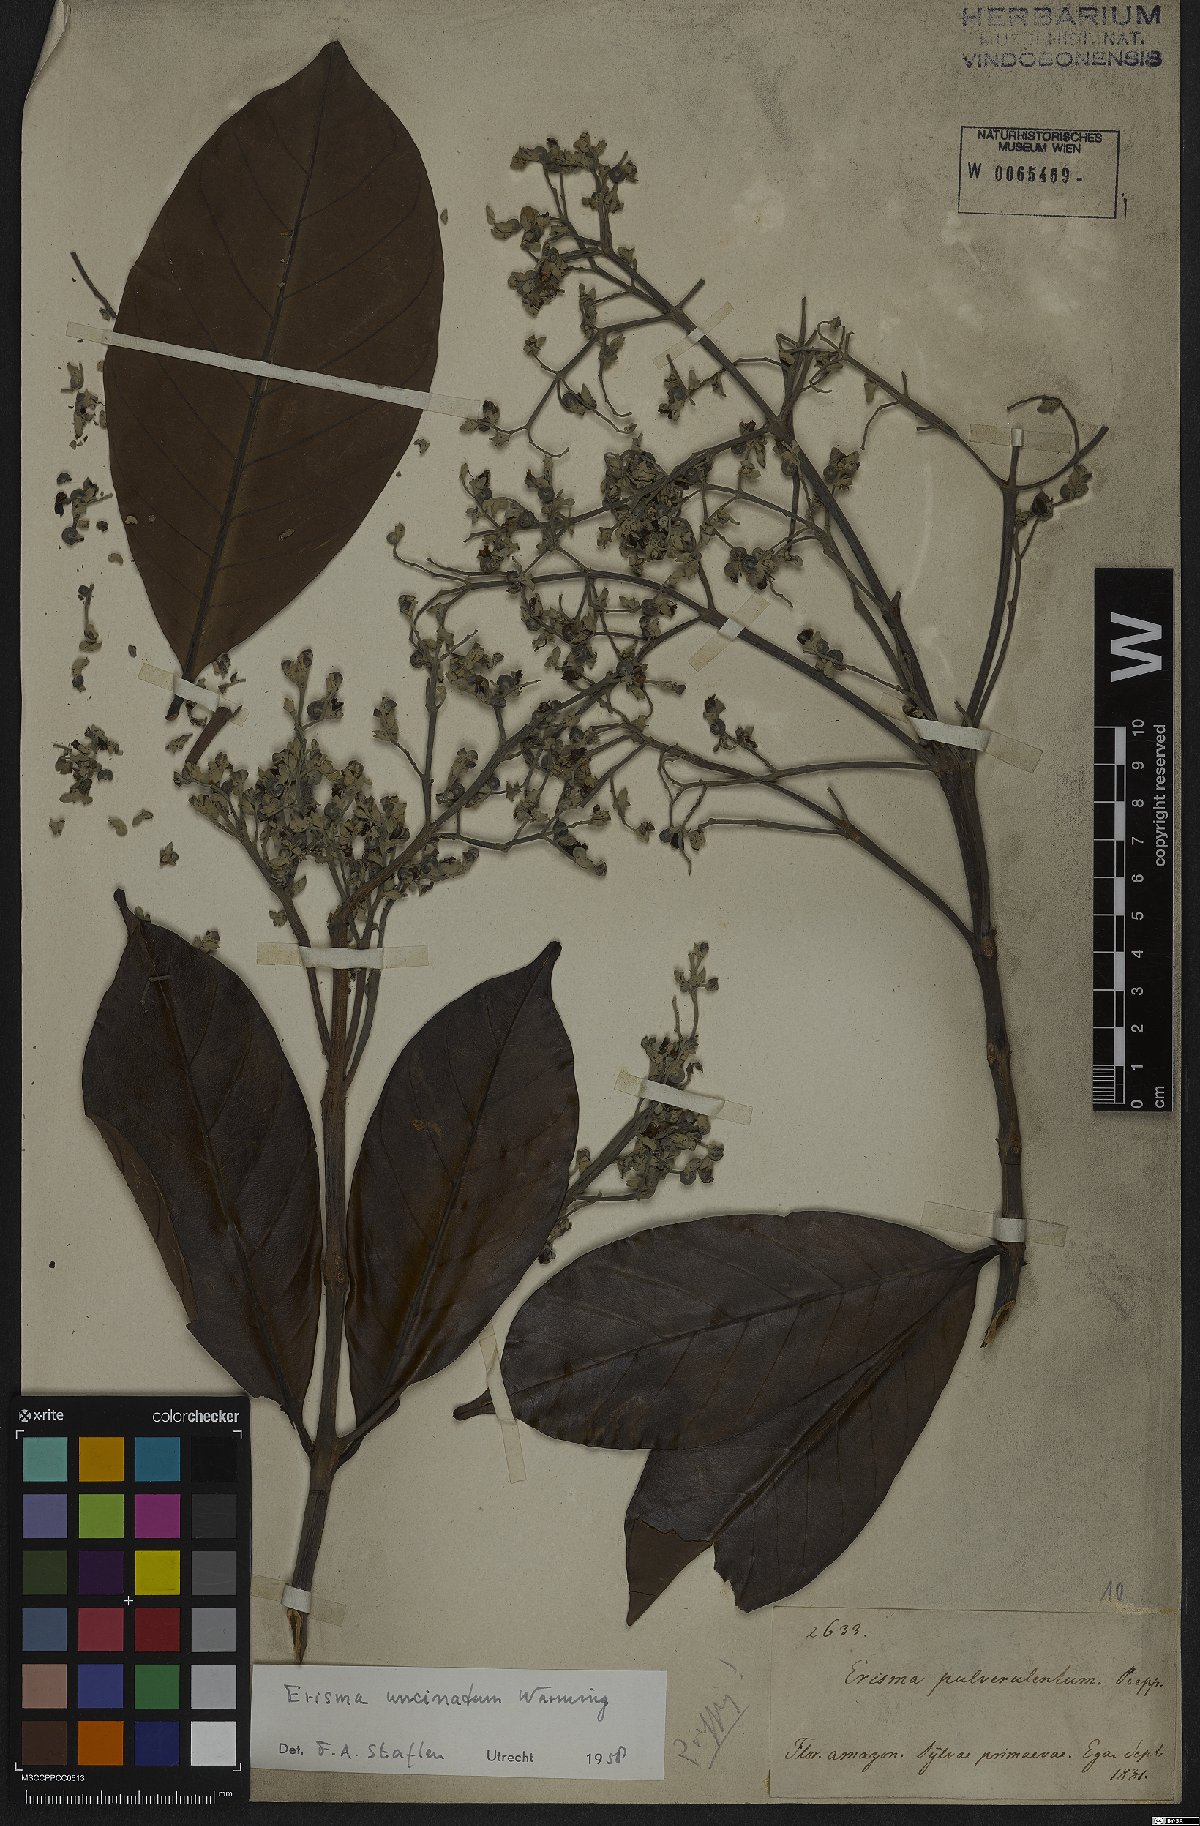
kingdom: Plantae
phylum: Tracheophyta
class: Magnoliopsida
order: Myrtales
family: Vochysiaceae
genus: Erisma
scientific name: Erisma uncinatum
